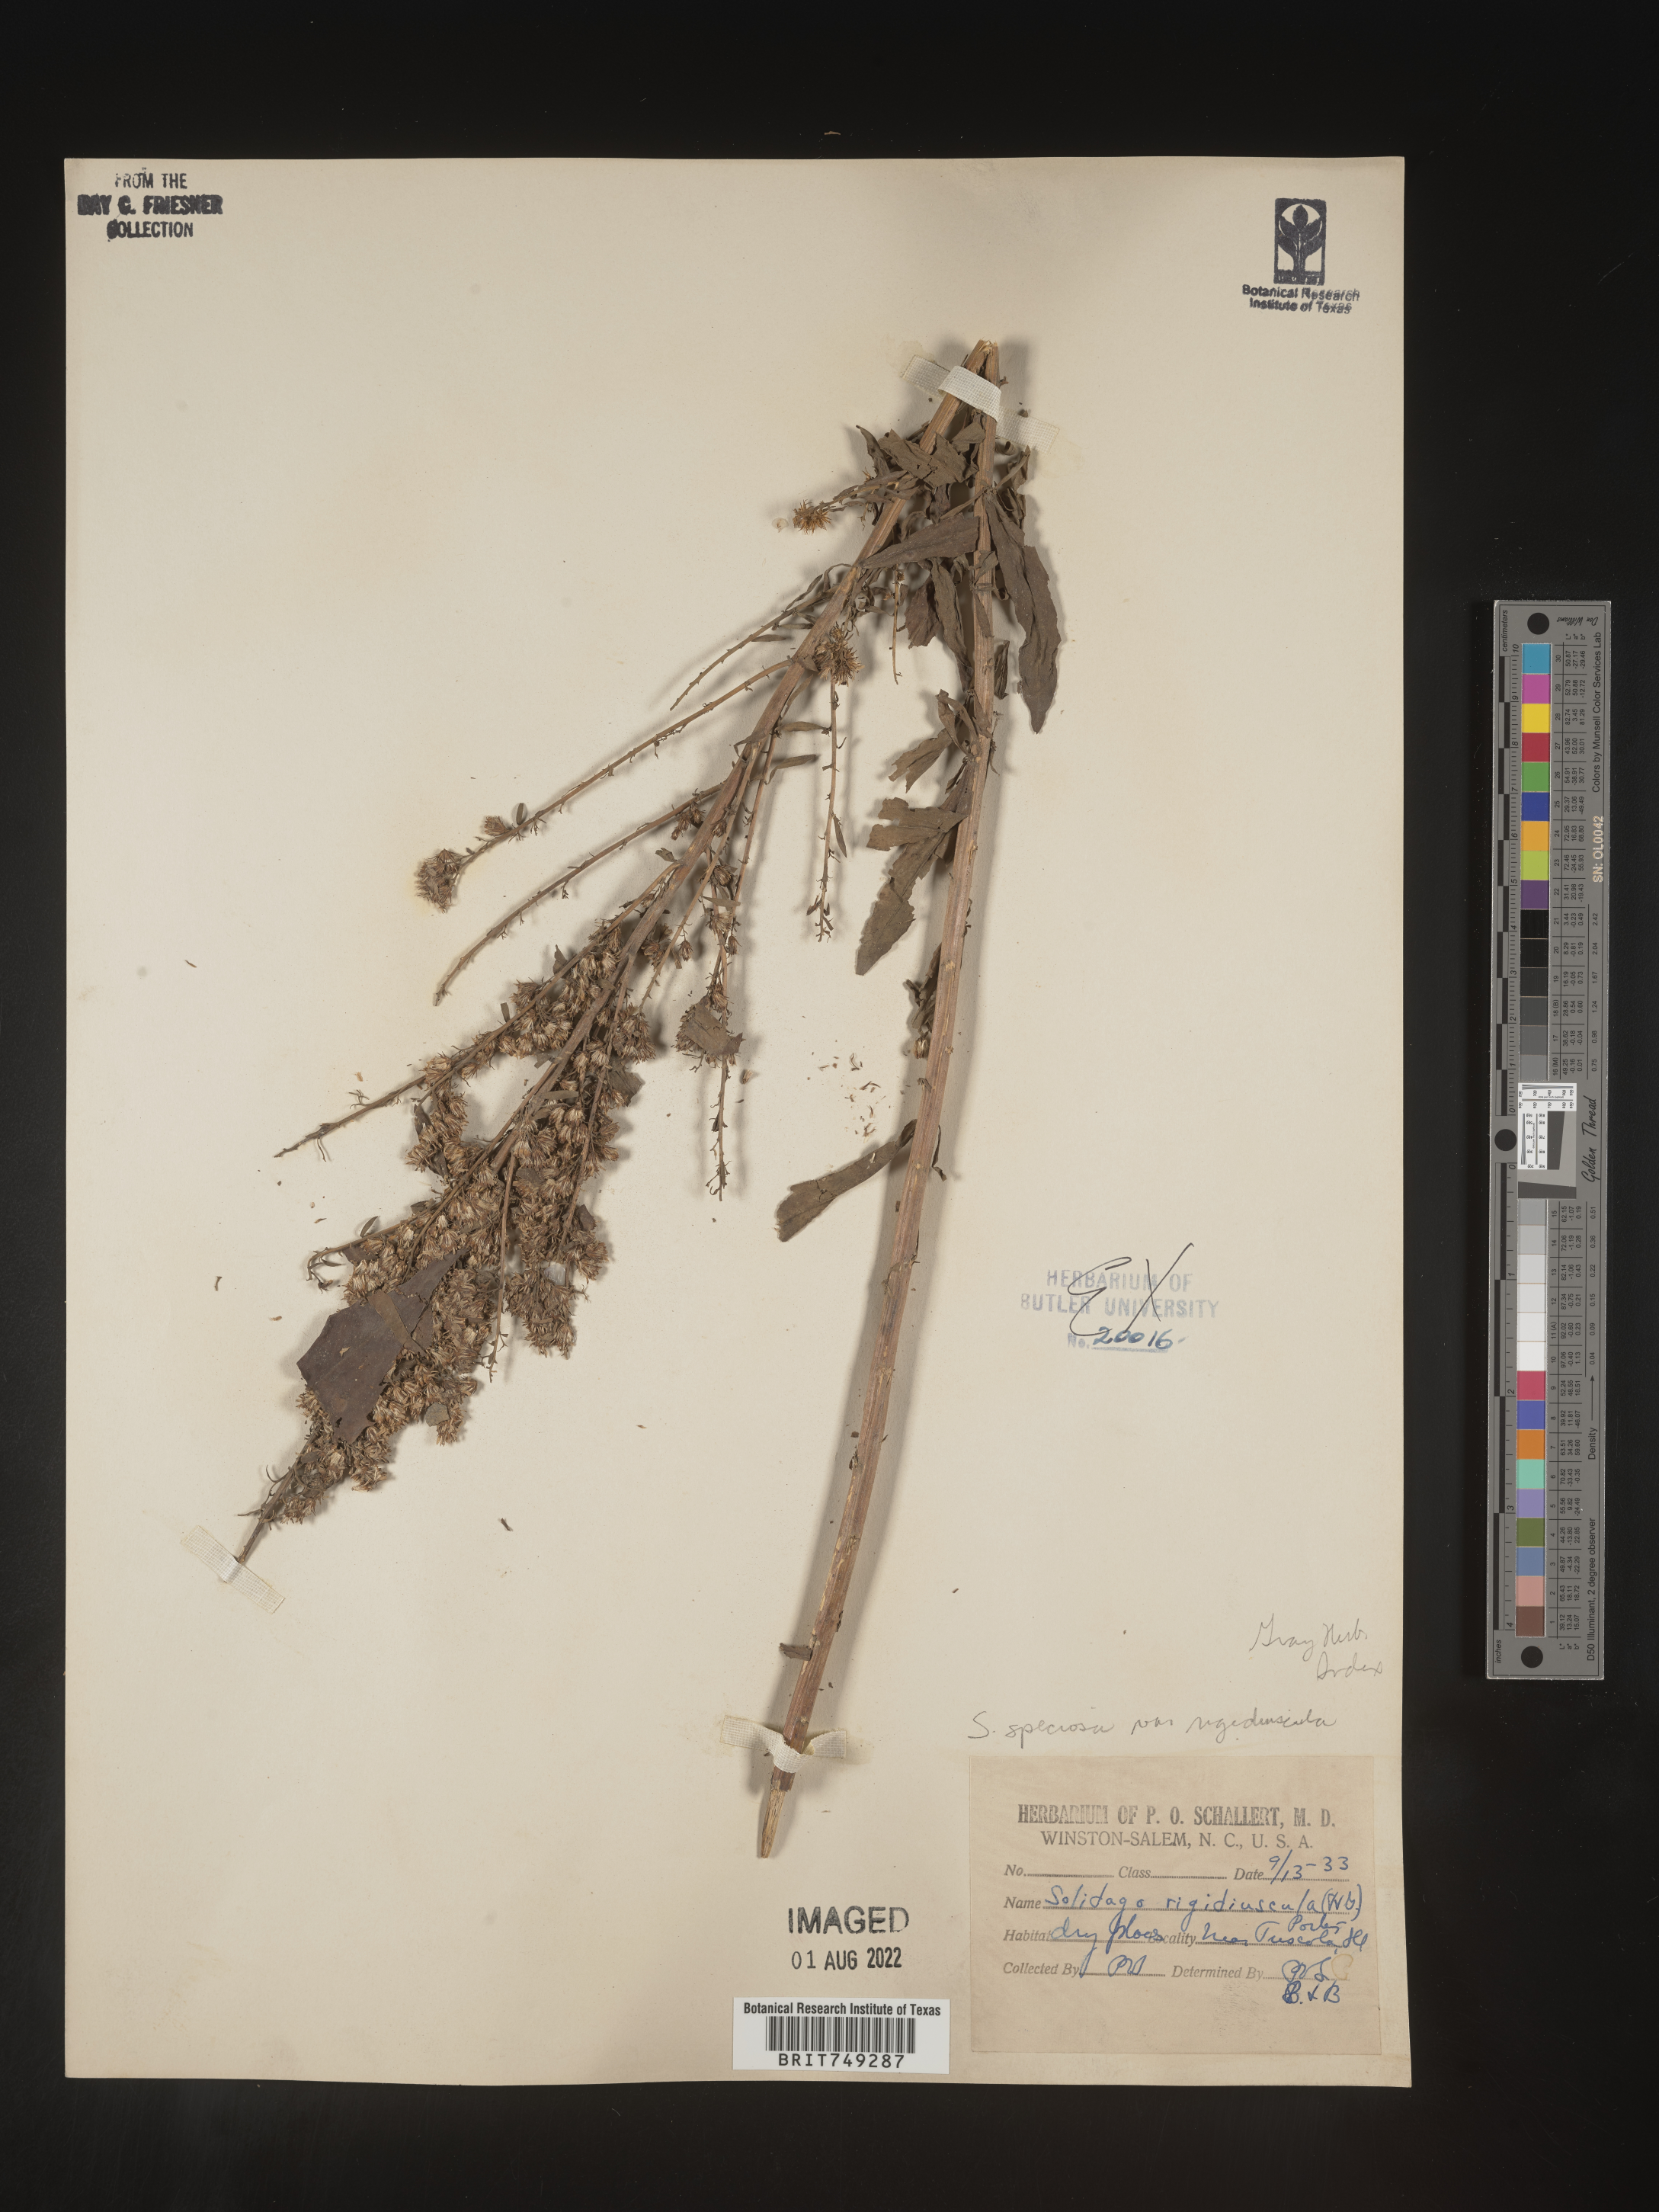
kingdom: Plantae
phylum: Tracheophyta
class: Magnoliopsida
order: Asterales
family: Asteraceae
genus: Solidago
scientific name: Solidago speciosa
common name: Showy goldenrod
